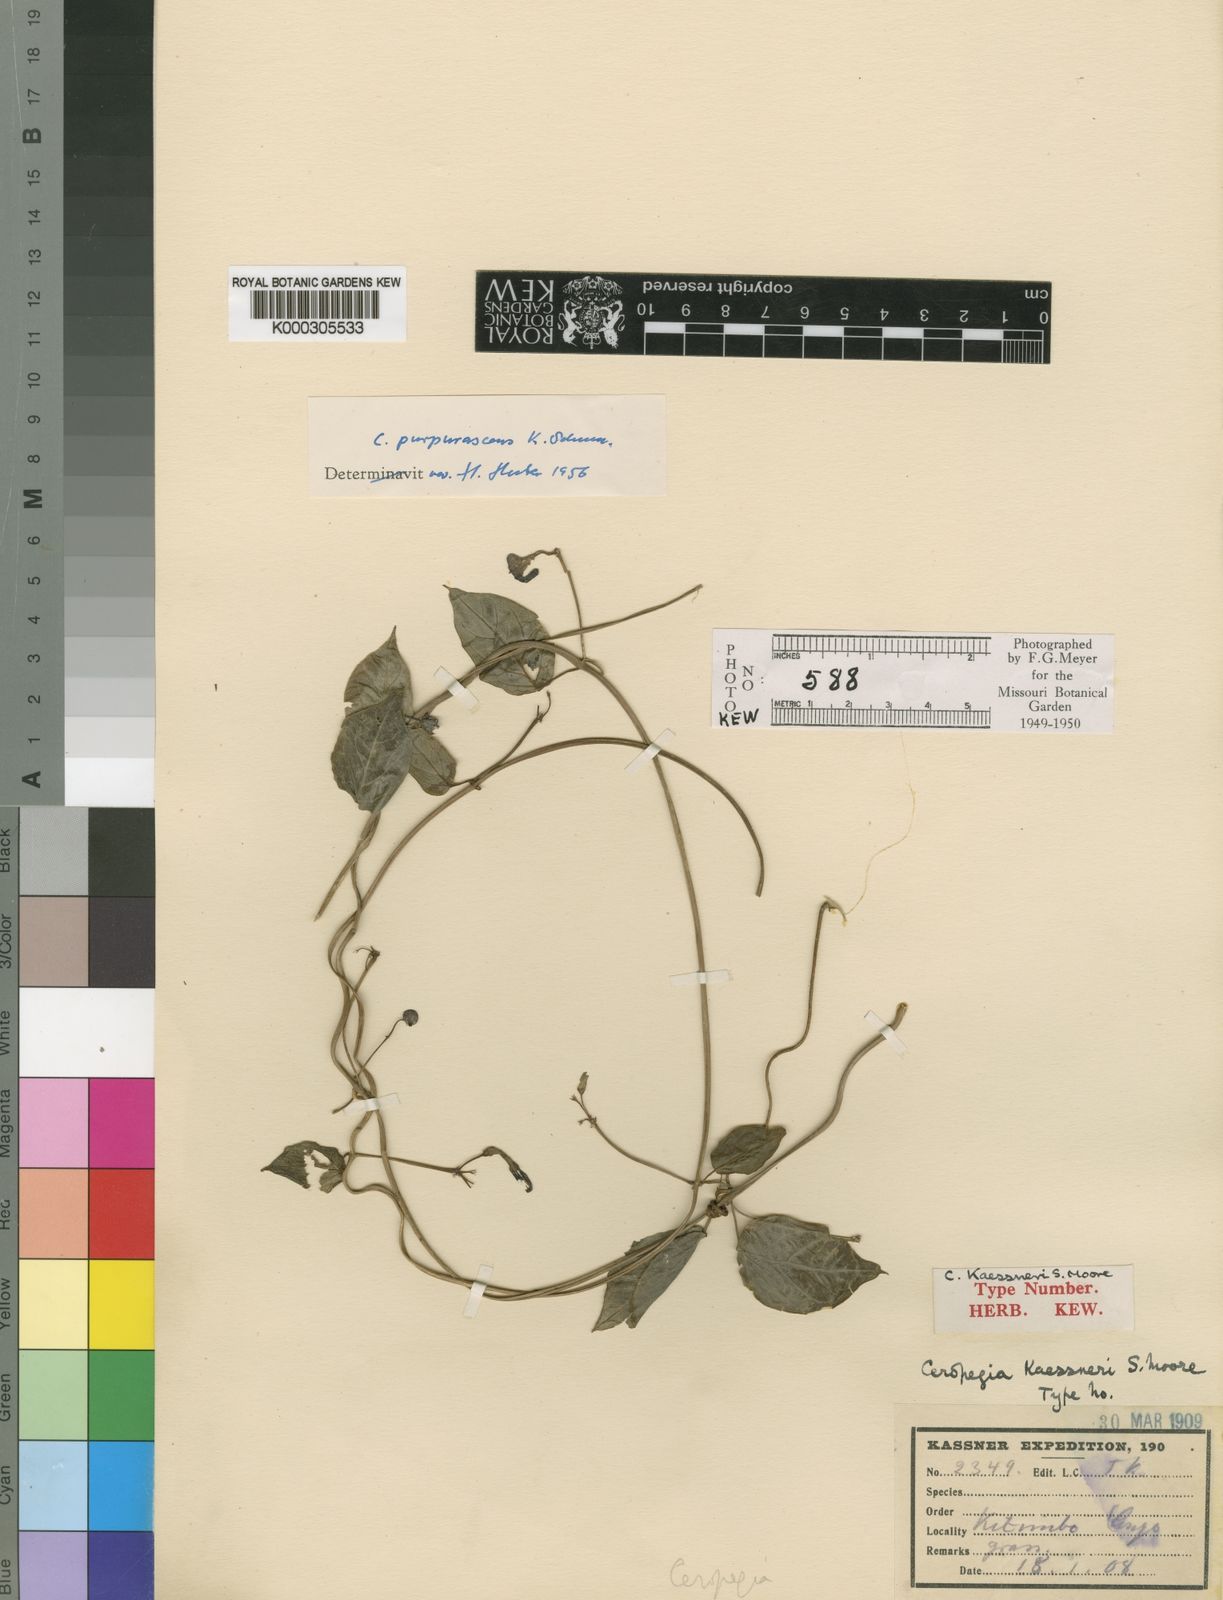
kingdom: Plantae
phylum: Tracheophyta
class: Magnoliopsida
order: Gentianales
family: Apocynaceae
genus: Ceropegia
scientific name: Ceropegia purpurascens
